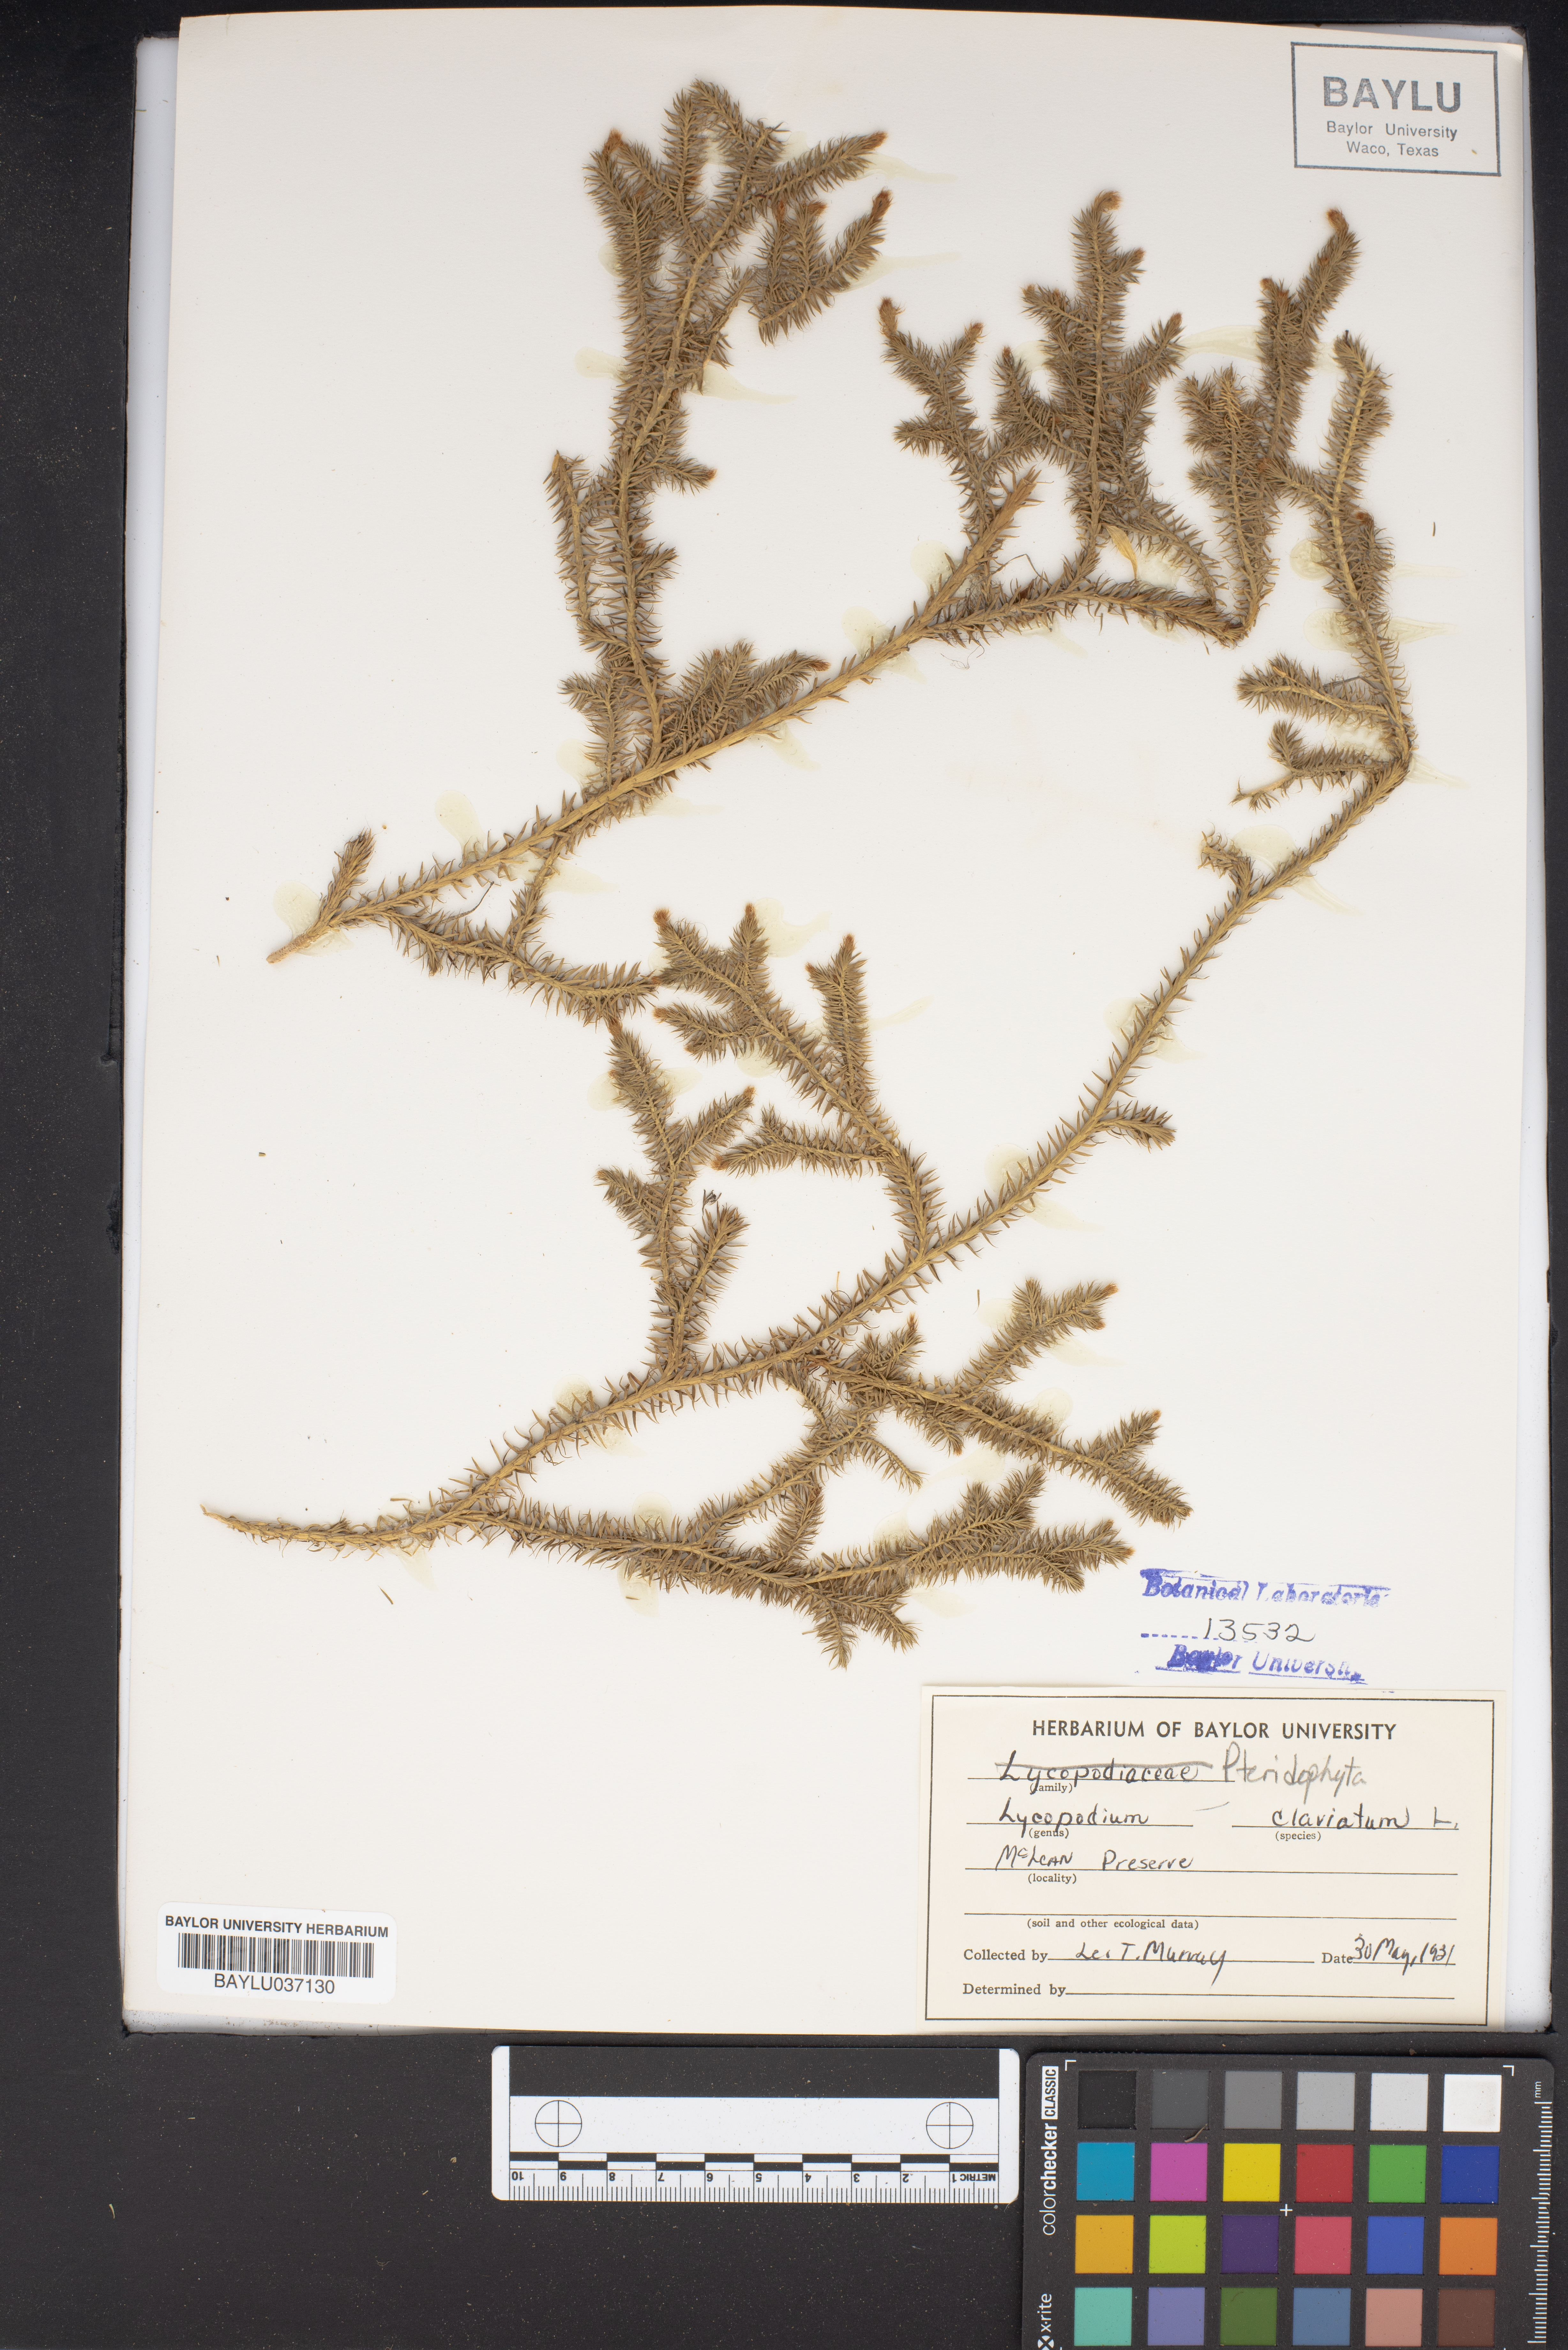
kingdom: Plantae
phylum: Tracheophyta
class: Lycopodiopsida
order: Lycopodiales
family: Lycopodiaceae
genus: Lycopodium
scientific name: Lycopodium clavatum
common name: Stag's-horn clubmoss
